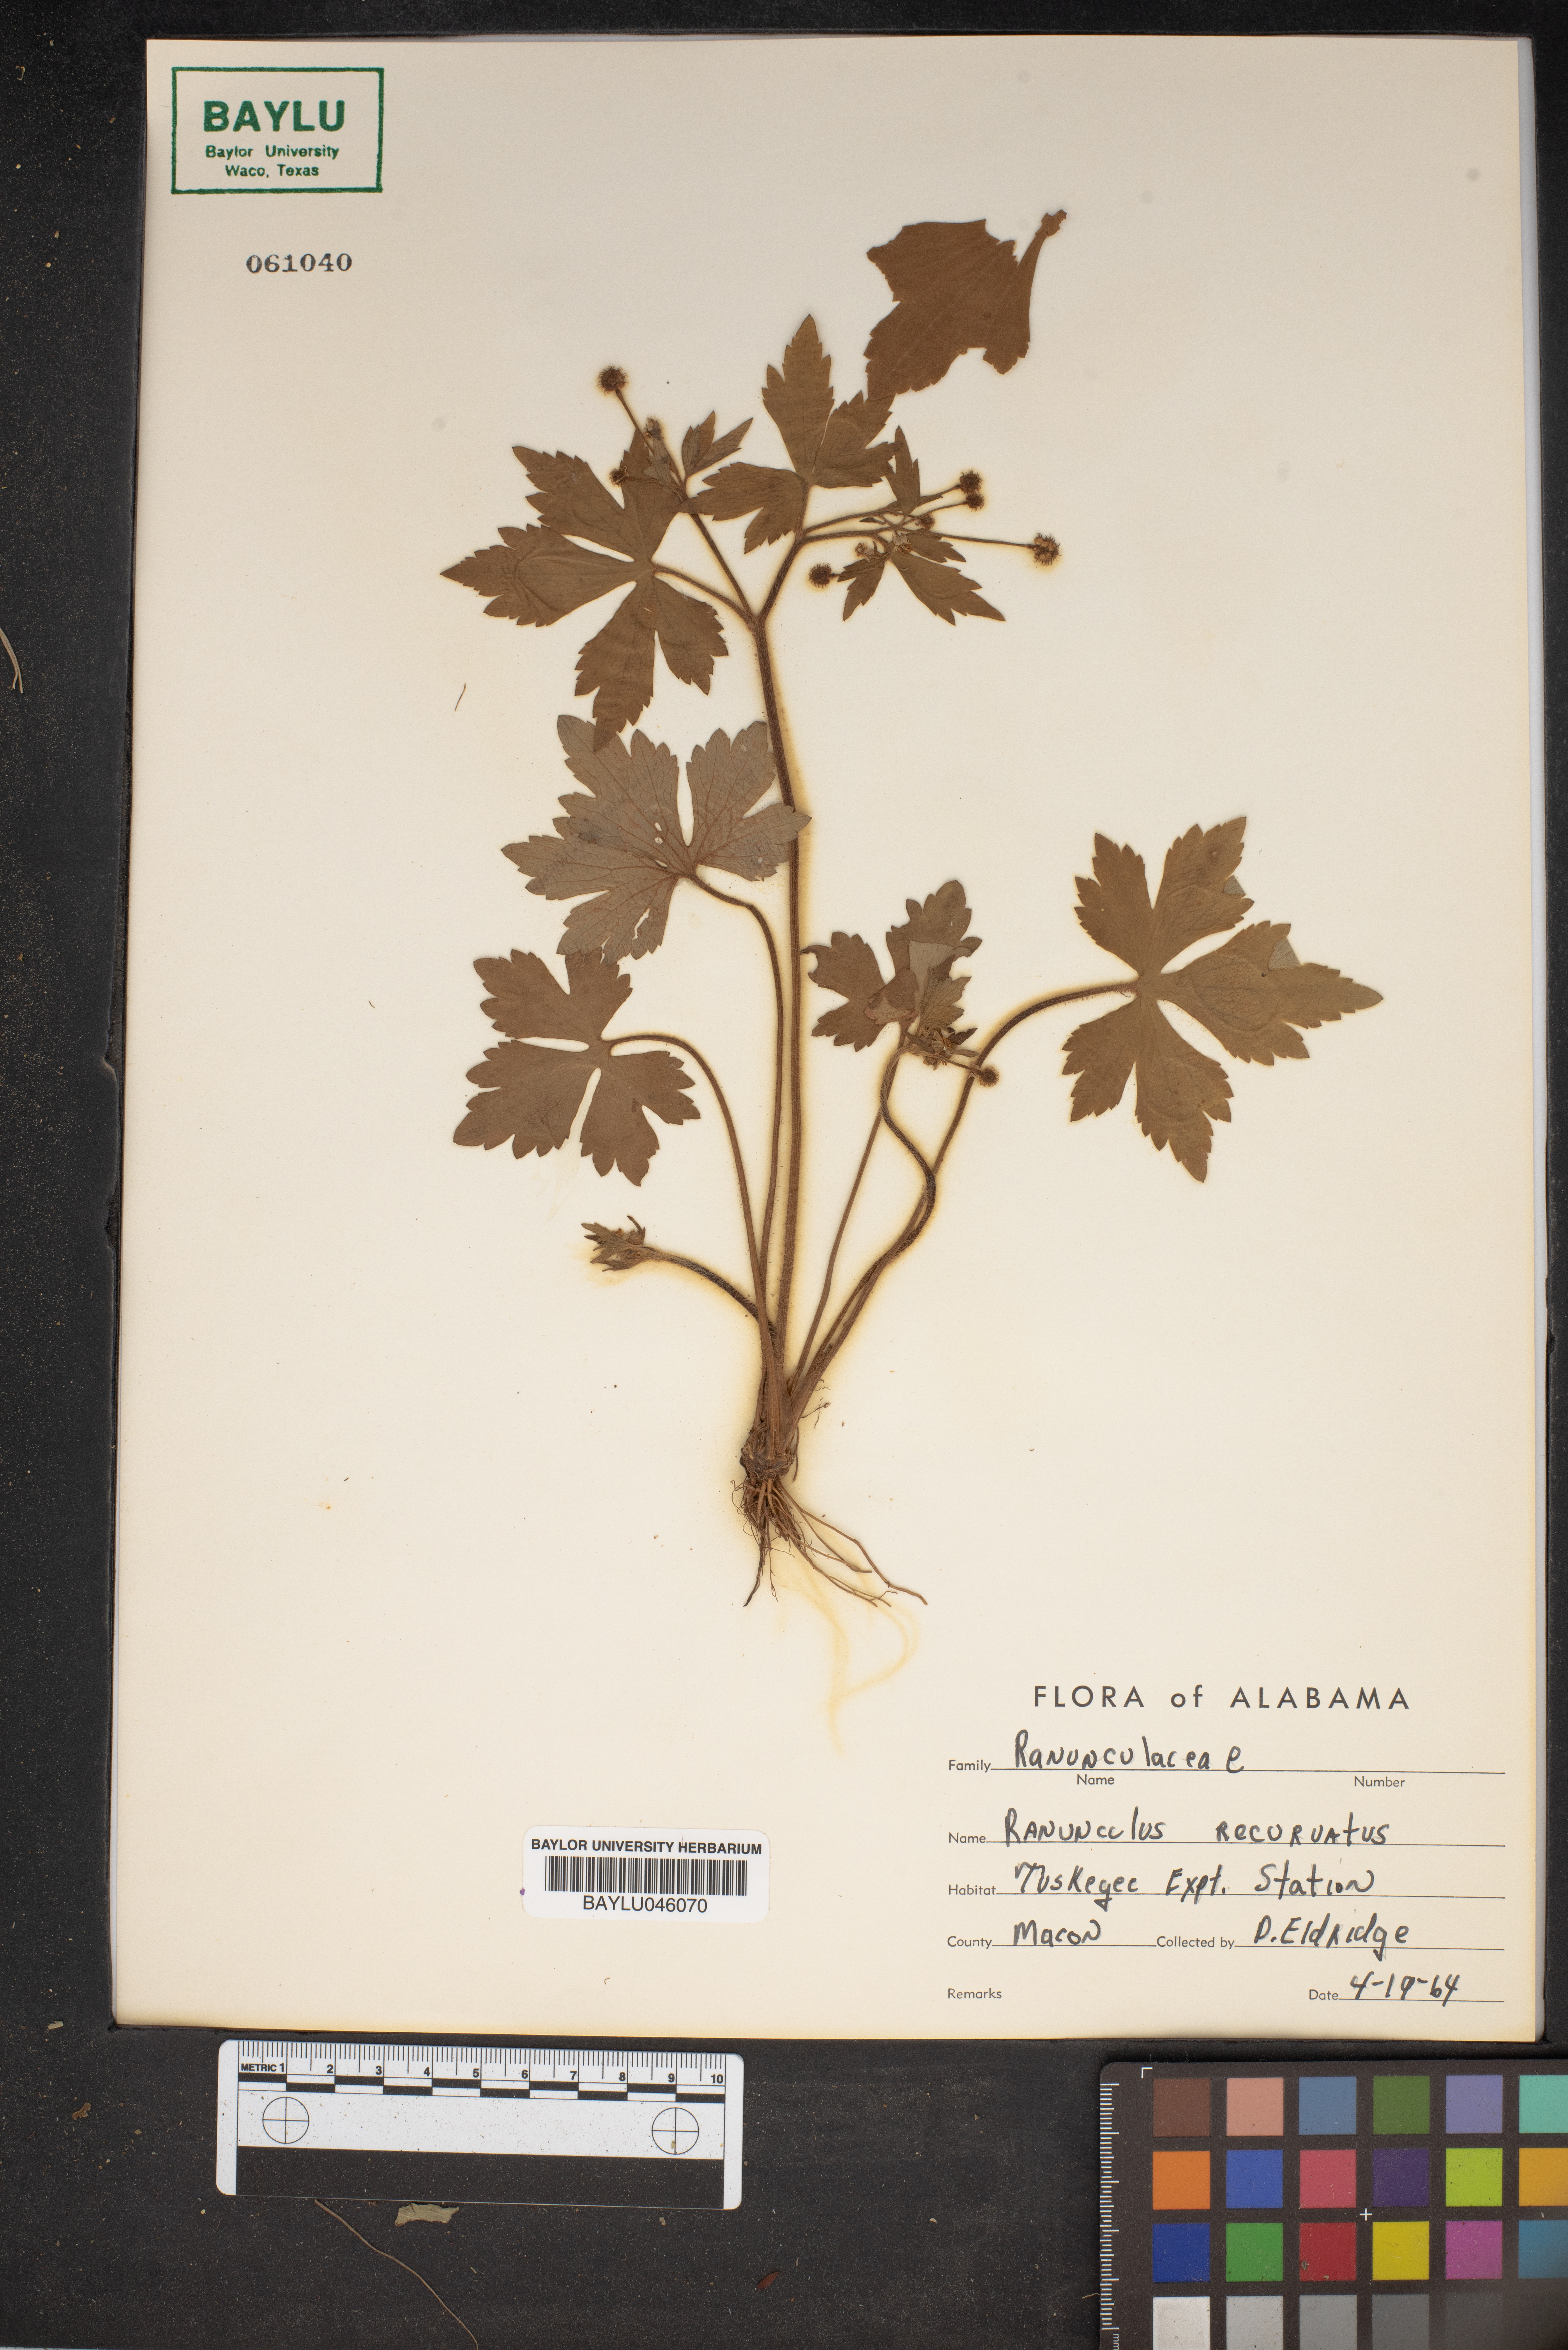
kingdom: Plantae
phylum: Tracheophyta
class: Magnoliopsida
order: Ranunculales
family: Ranunculaceae
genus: Ranunculus
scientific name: Ranunculus recurvatus
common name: Blisterwort
